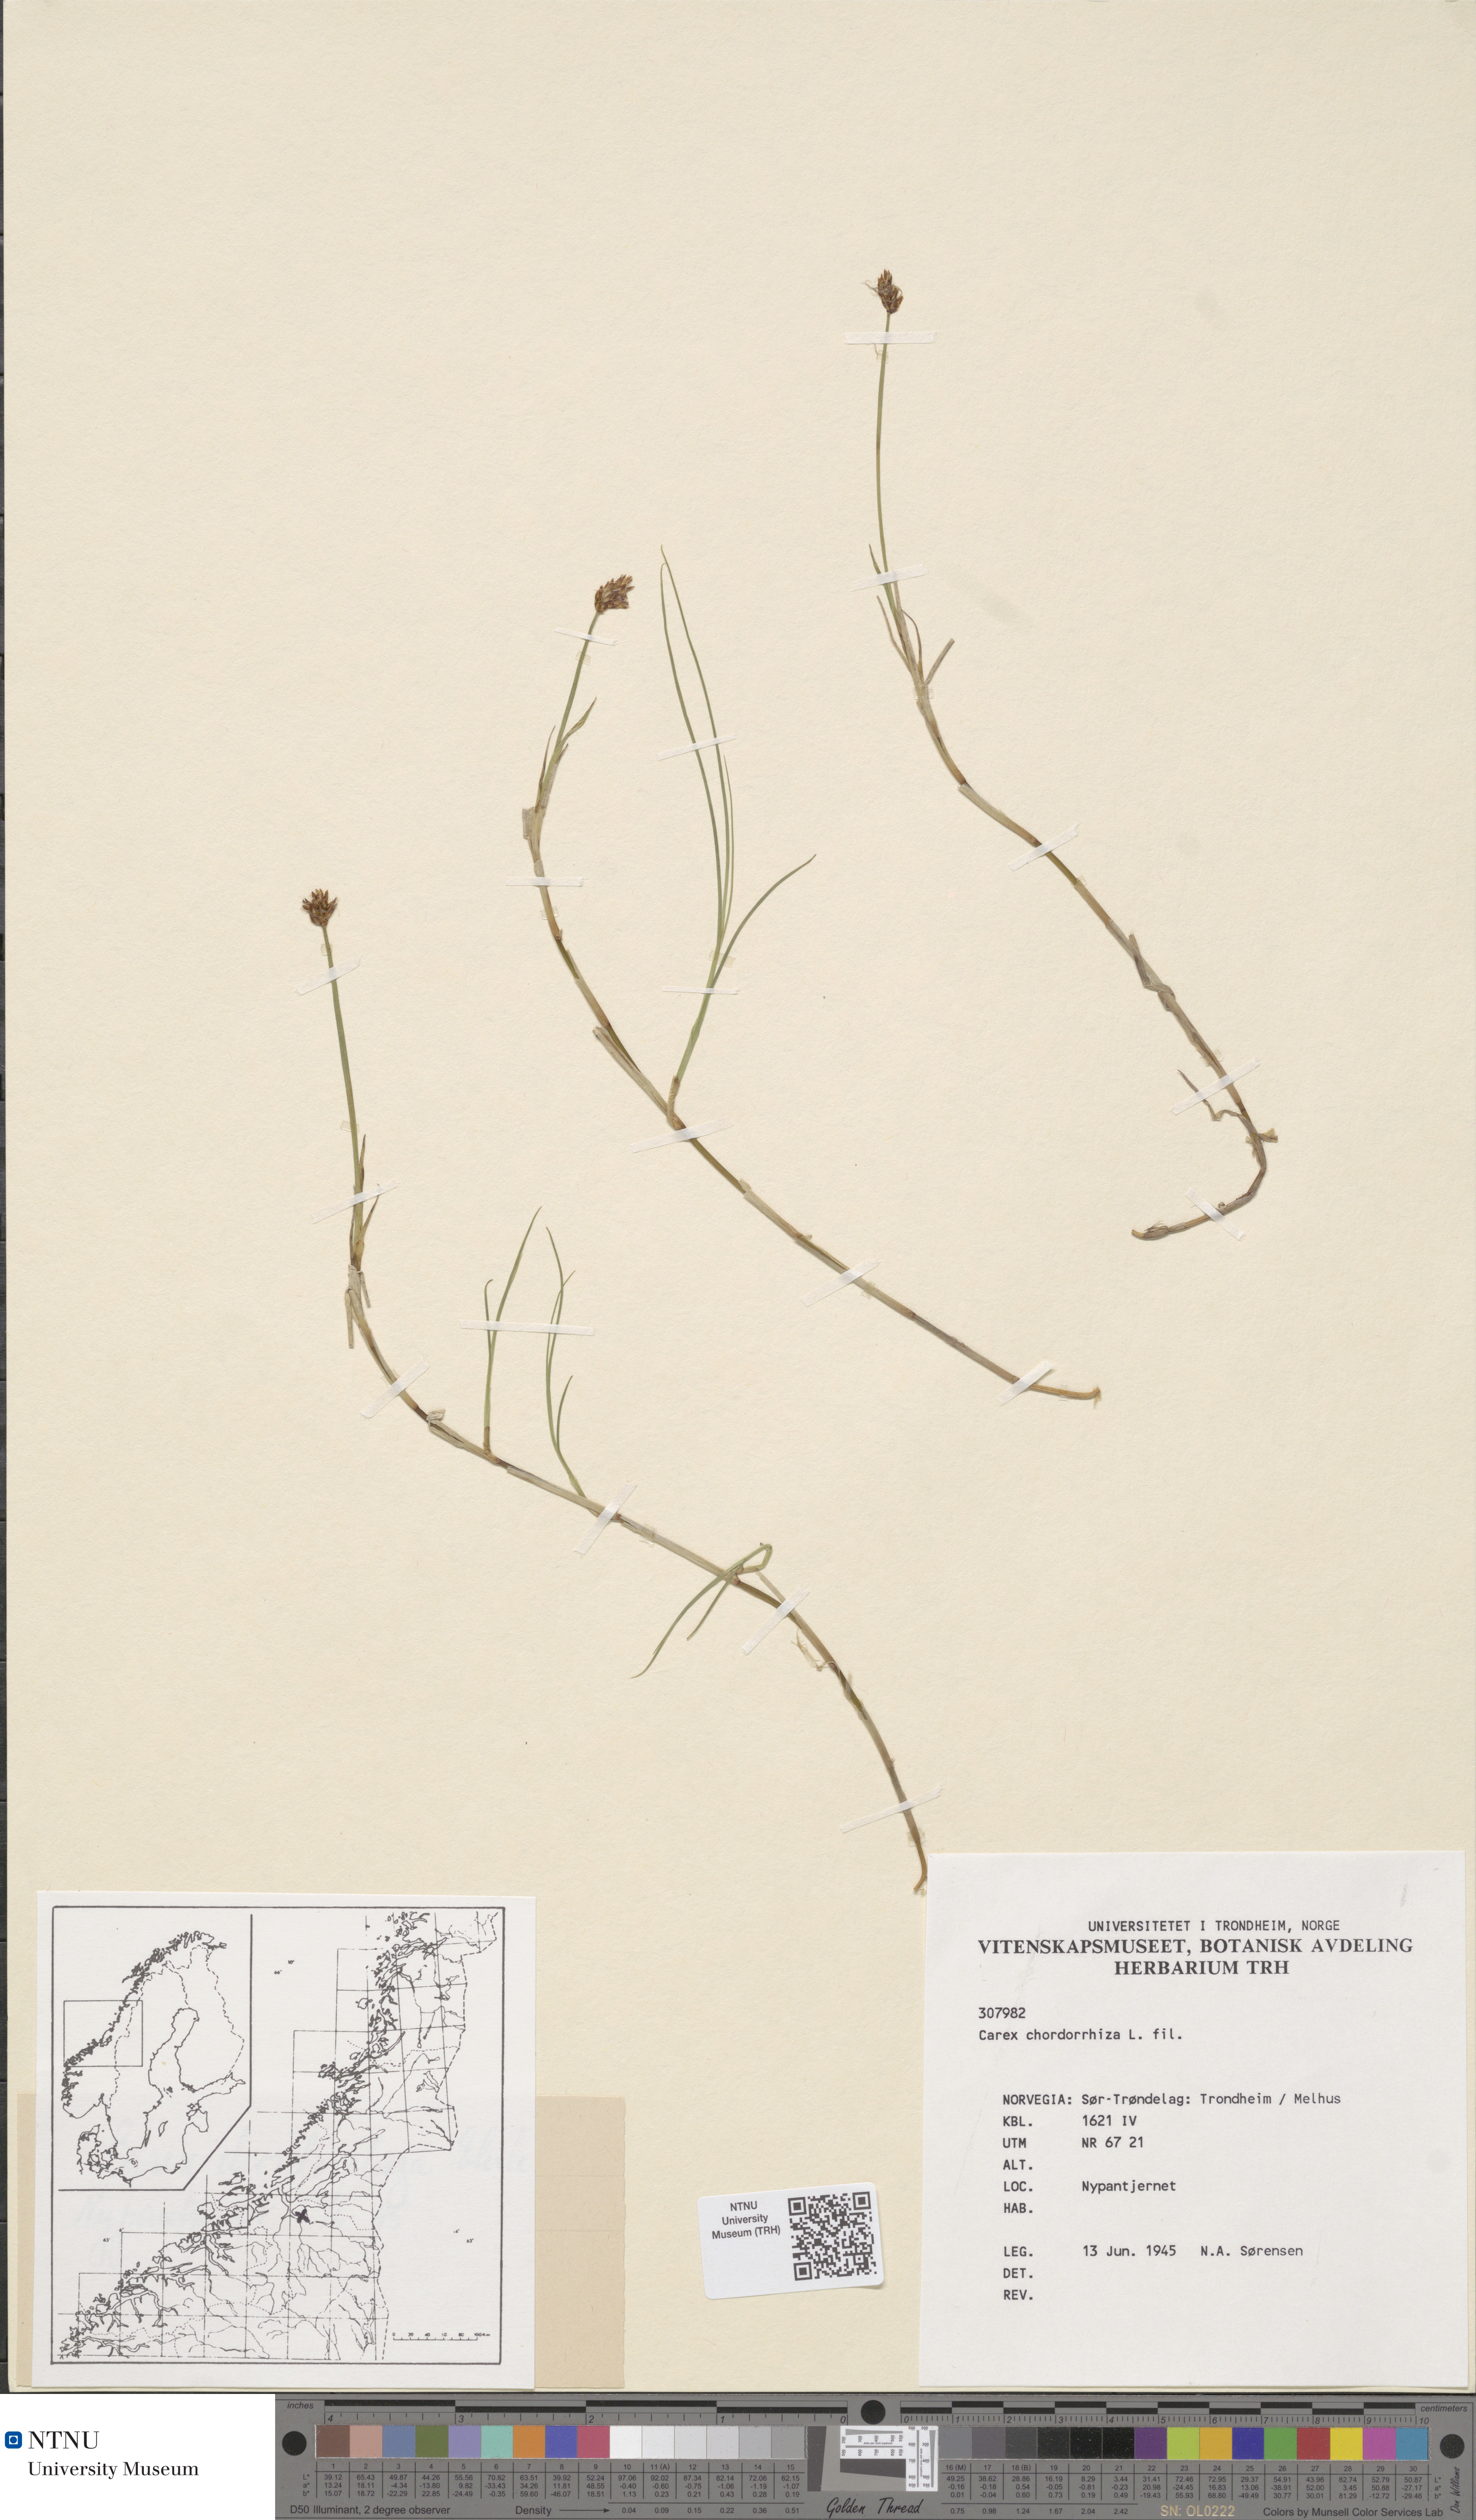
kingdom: Plantae
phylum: Tracheophyta
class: Liliopsida
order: Poales
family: Cyperaceae
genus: Carex
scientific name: Carex chordorrhiza
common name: String sedge
